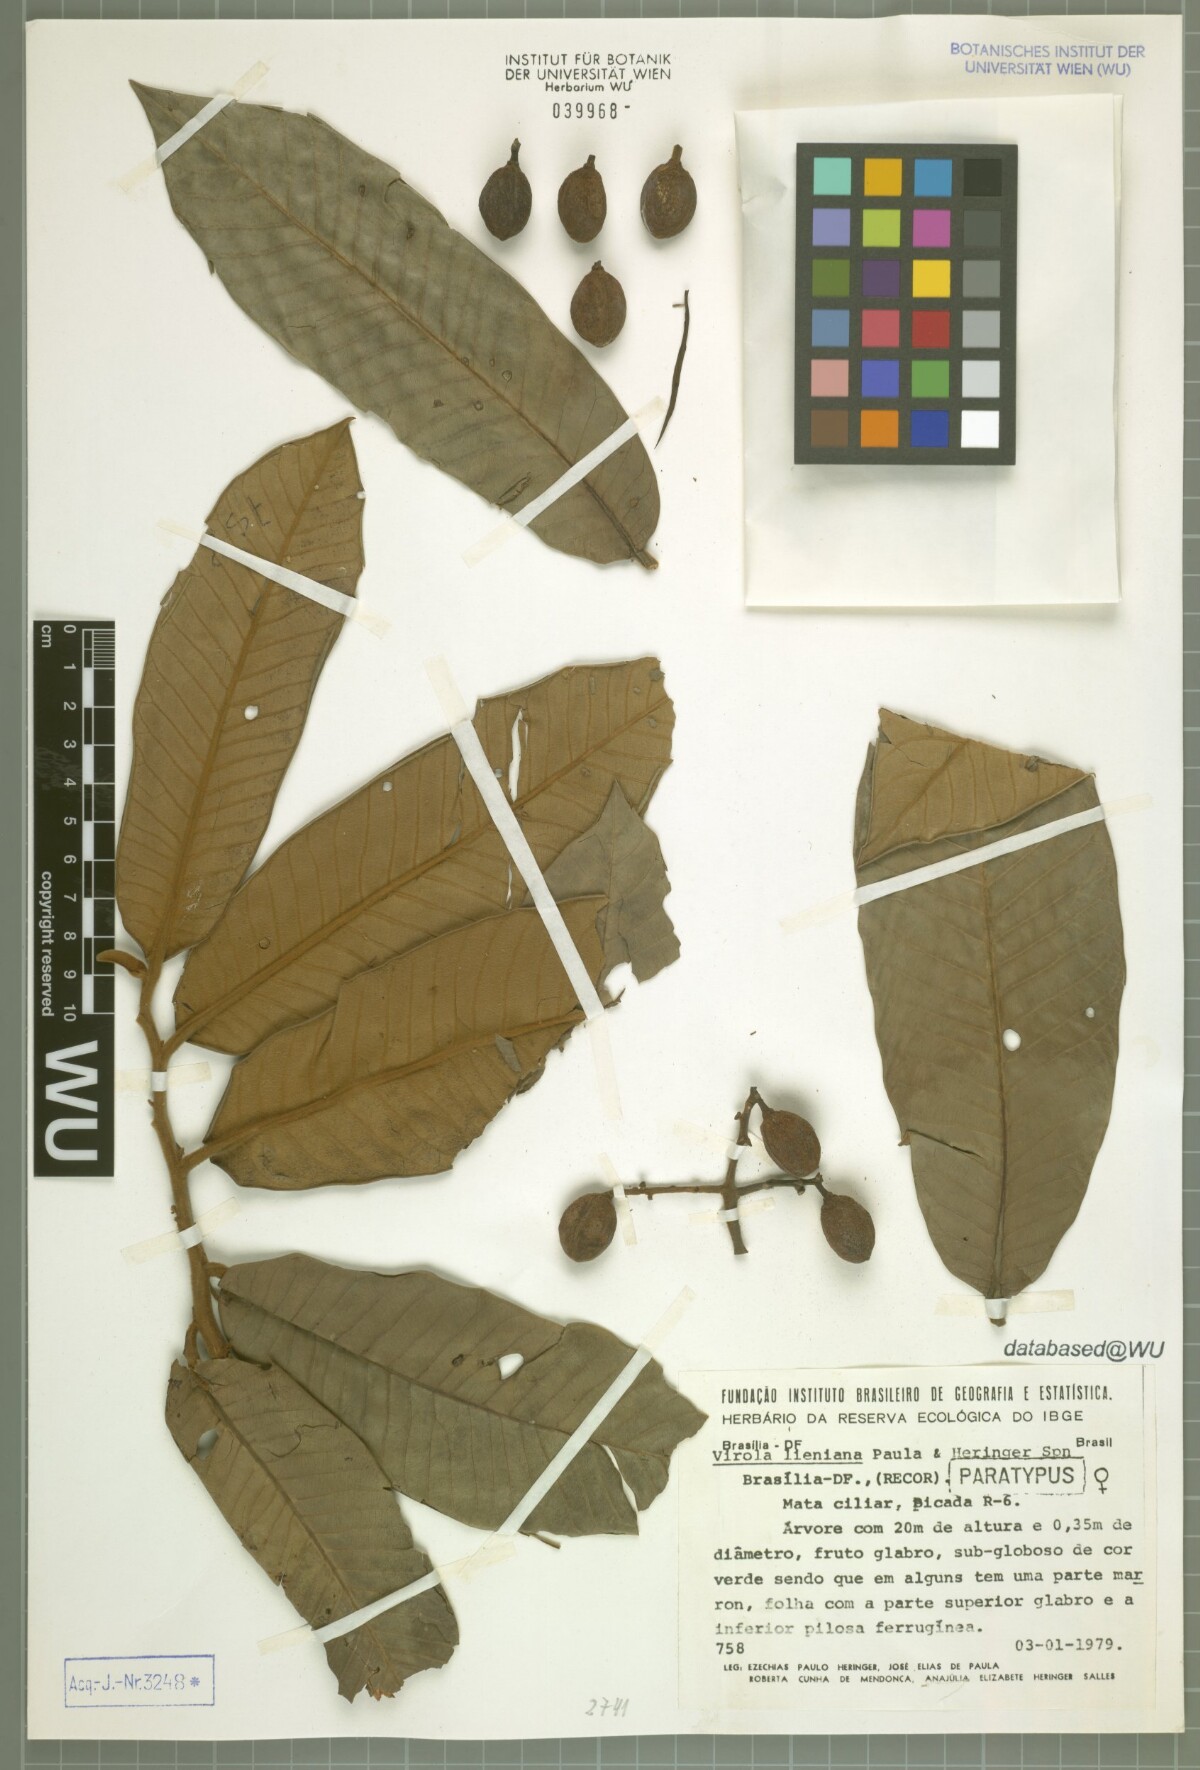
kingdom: Plantae
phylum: Tracheophyta
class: Magnoliopsida
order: Magnoliales
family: Myristicaceae
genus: Virola
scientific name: Virola lieneana
